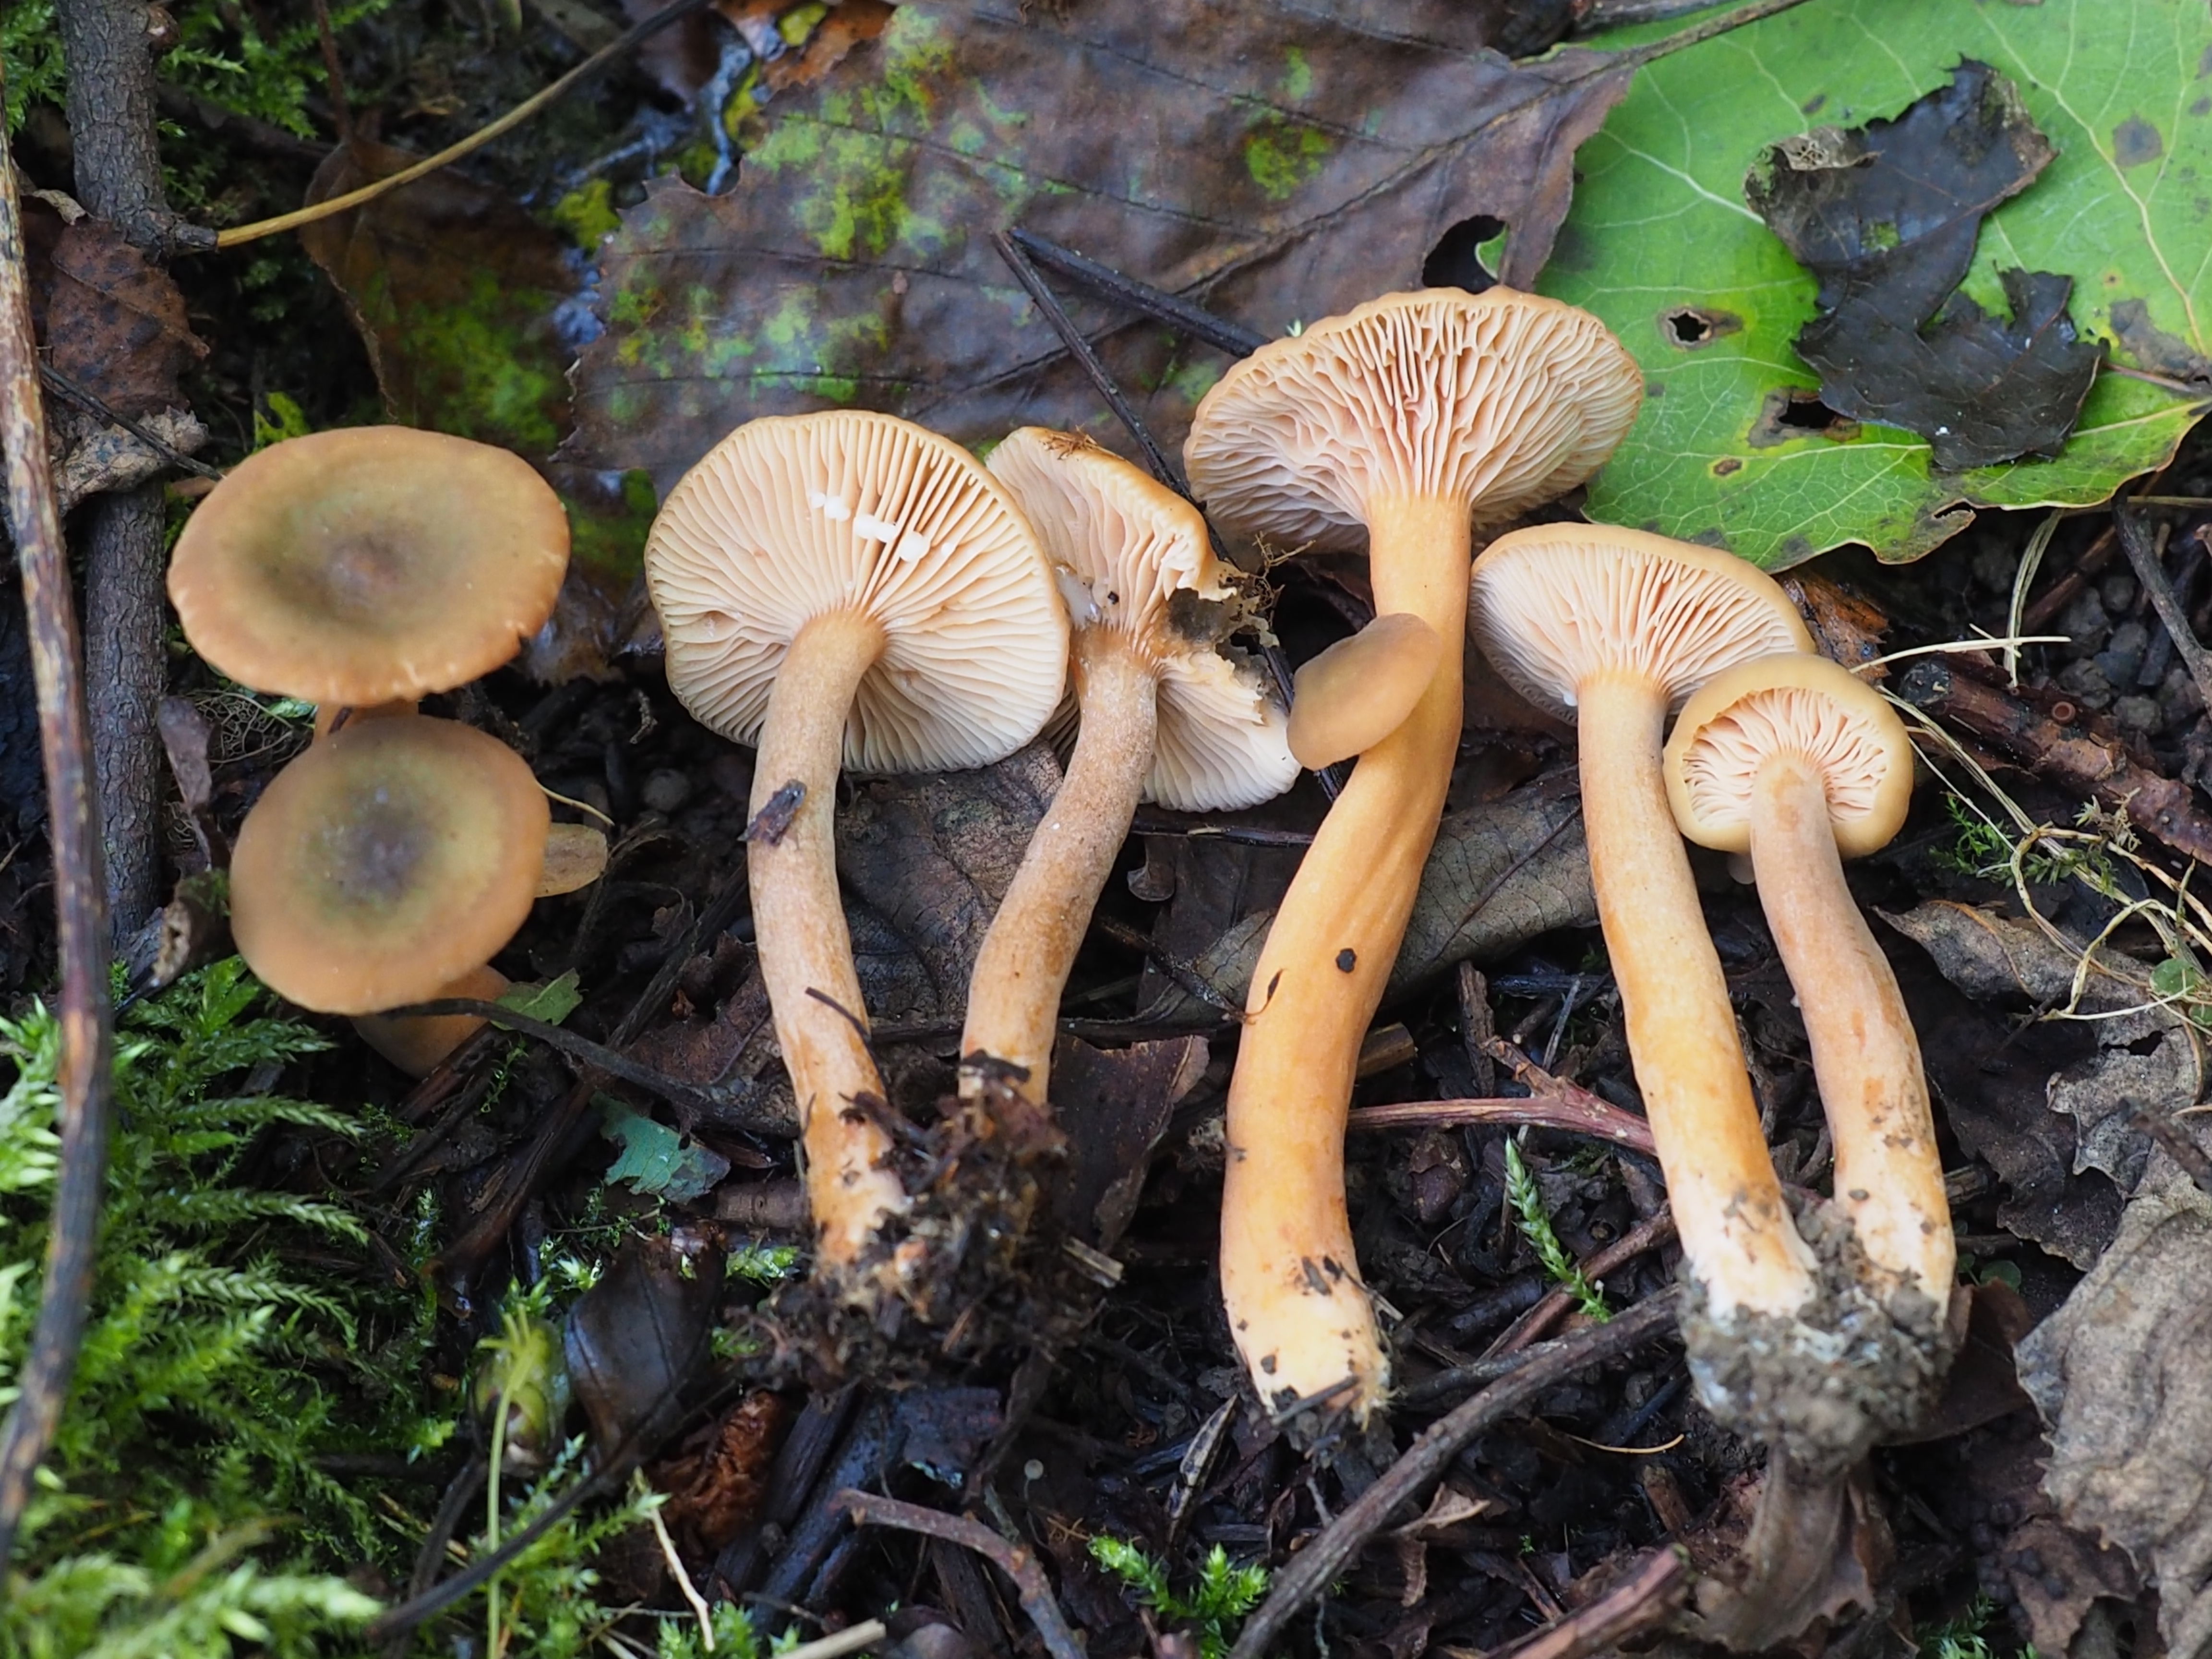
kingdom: Fungi
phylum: Basidiomycota
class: Agaricomycetes
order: Russulales
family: Russulaceae
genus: Lactarius
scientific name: Lactarius cyathuliformis
